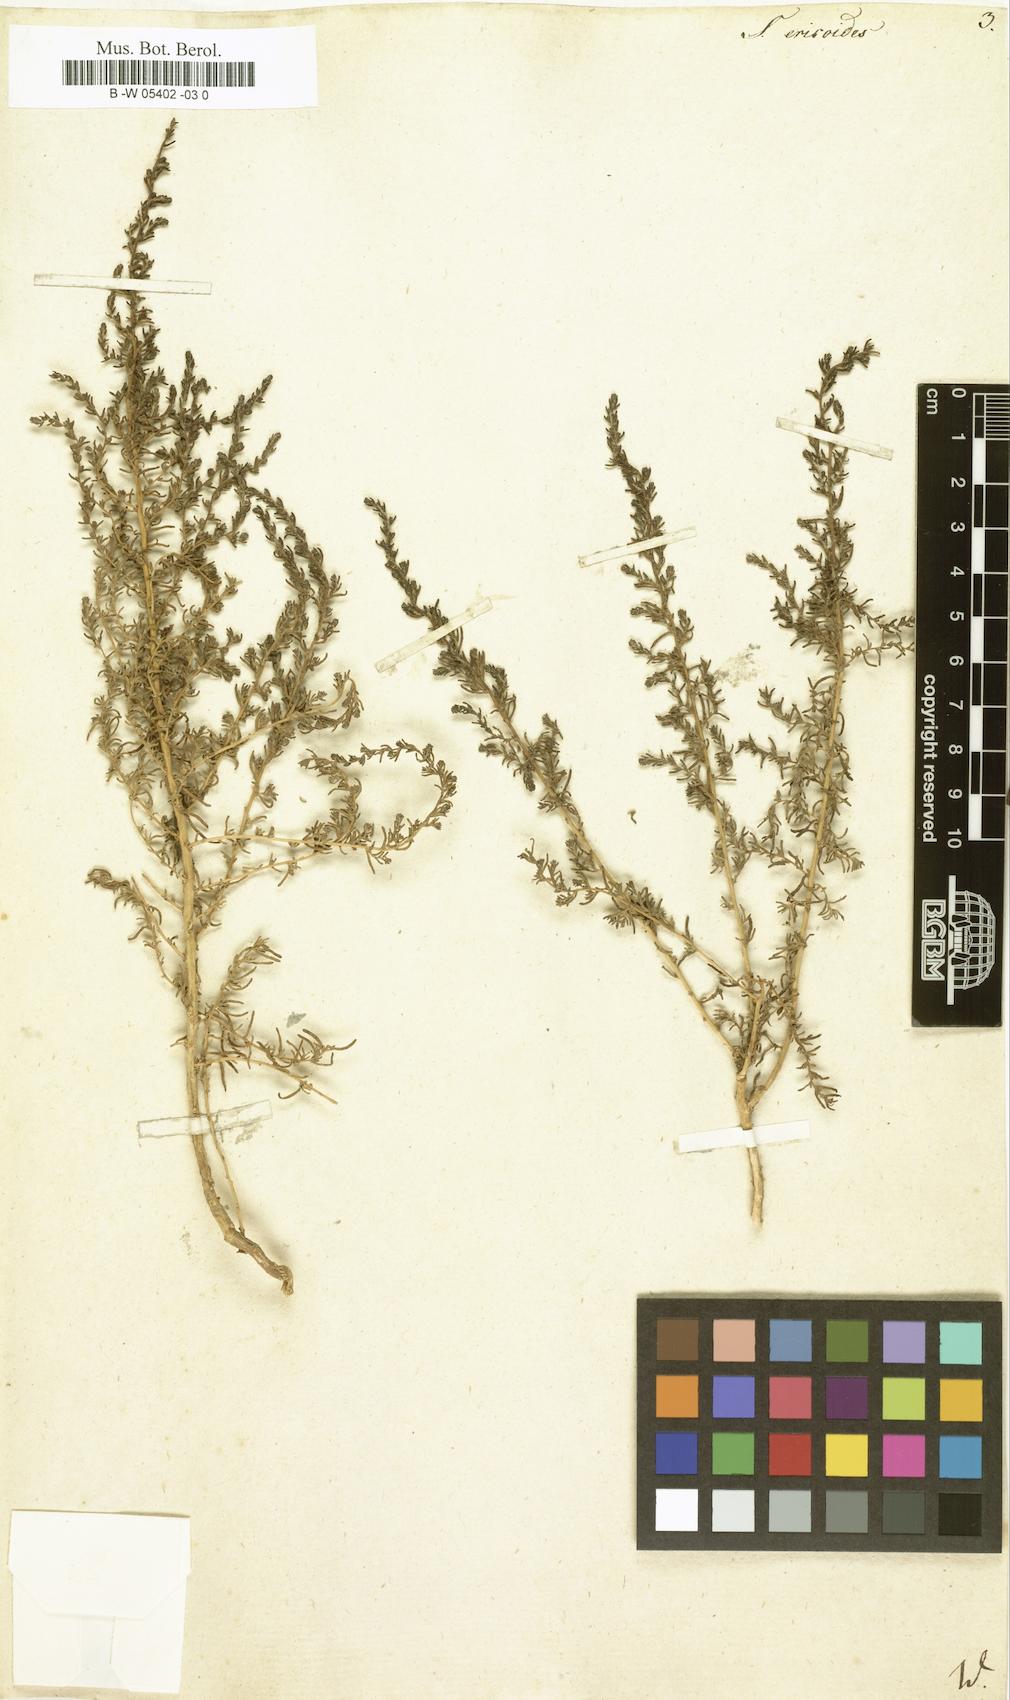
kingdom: Plantae
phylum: Tracheophyta
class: Magnoliopsida
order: Caryophyllales
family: Amaranthaceae
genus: Nitrosalsola
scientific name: Nitrosalsola ericoides
